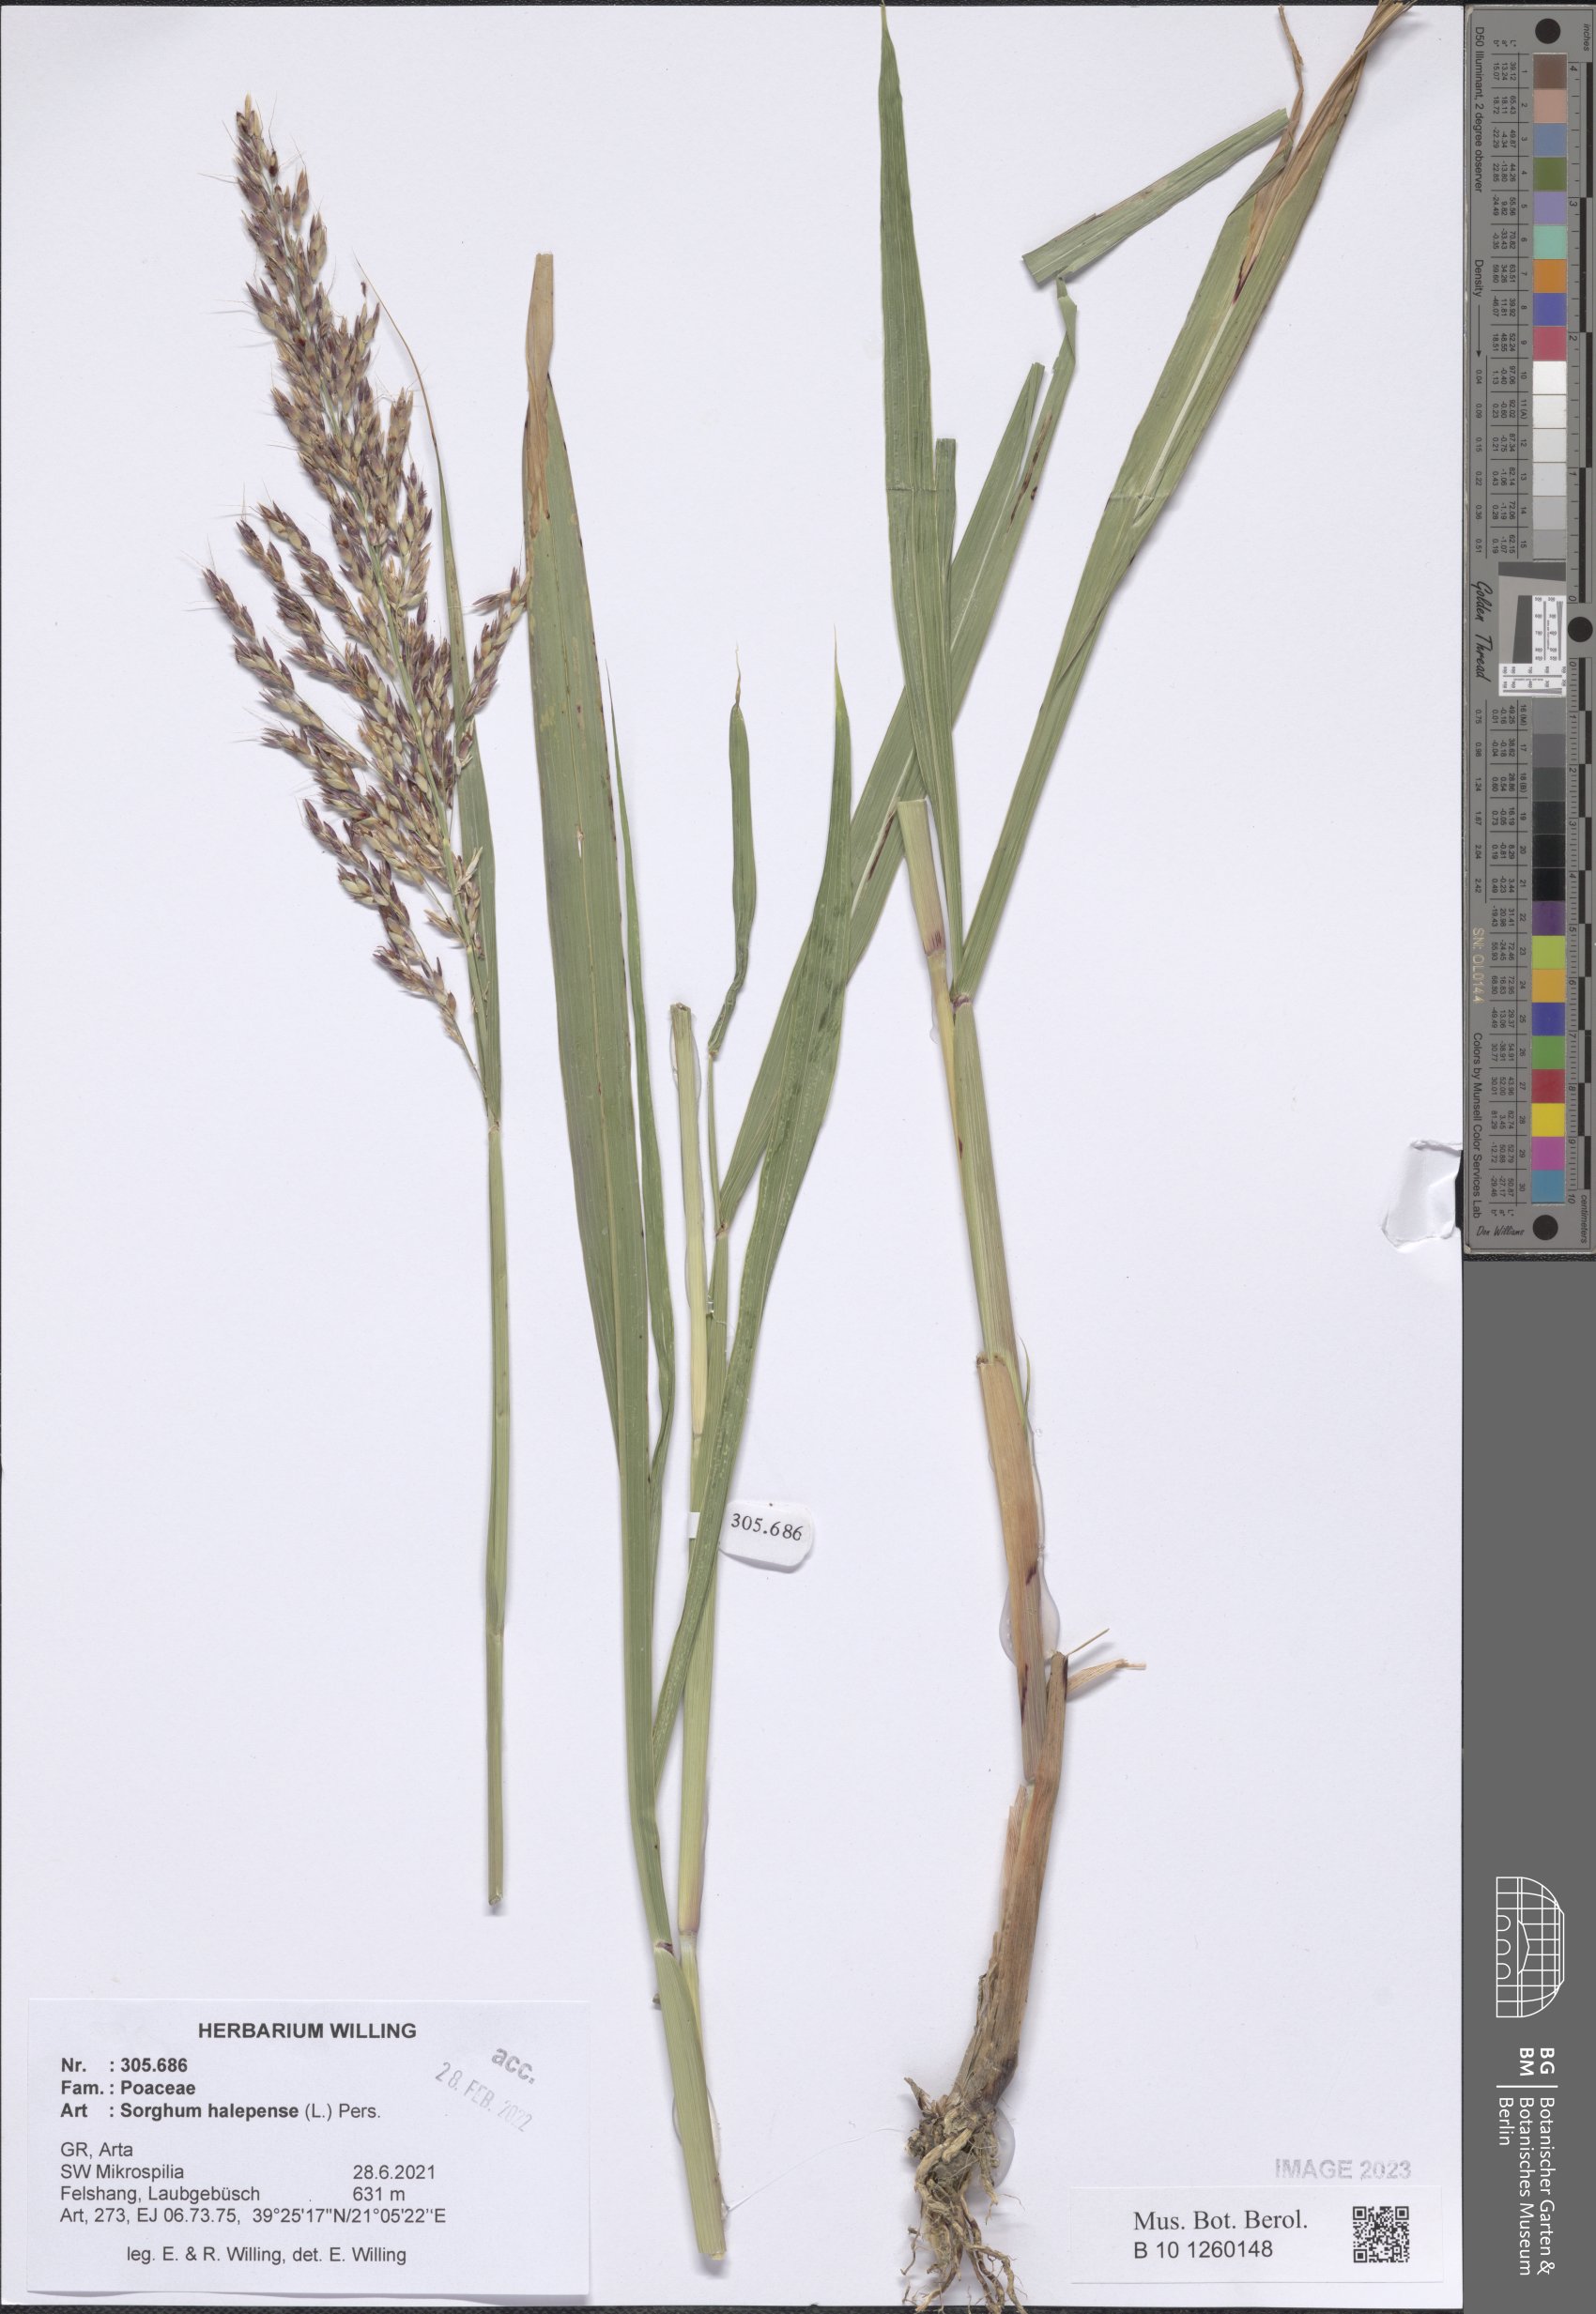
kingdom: Plantae
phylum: Tracheophyta
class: Liliopsida
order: Poales
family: Poaceae
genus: Sorghum
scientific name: Sorghum halepense
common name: Johnson-grass
